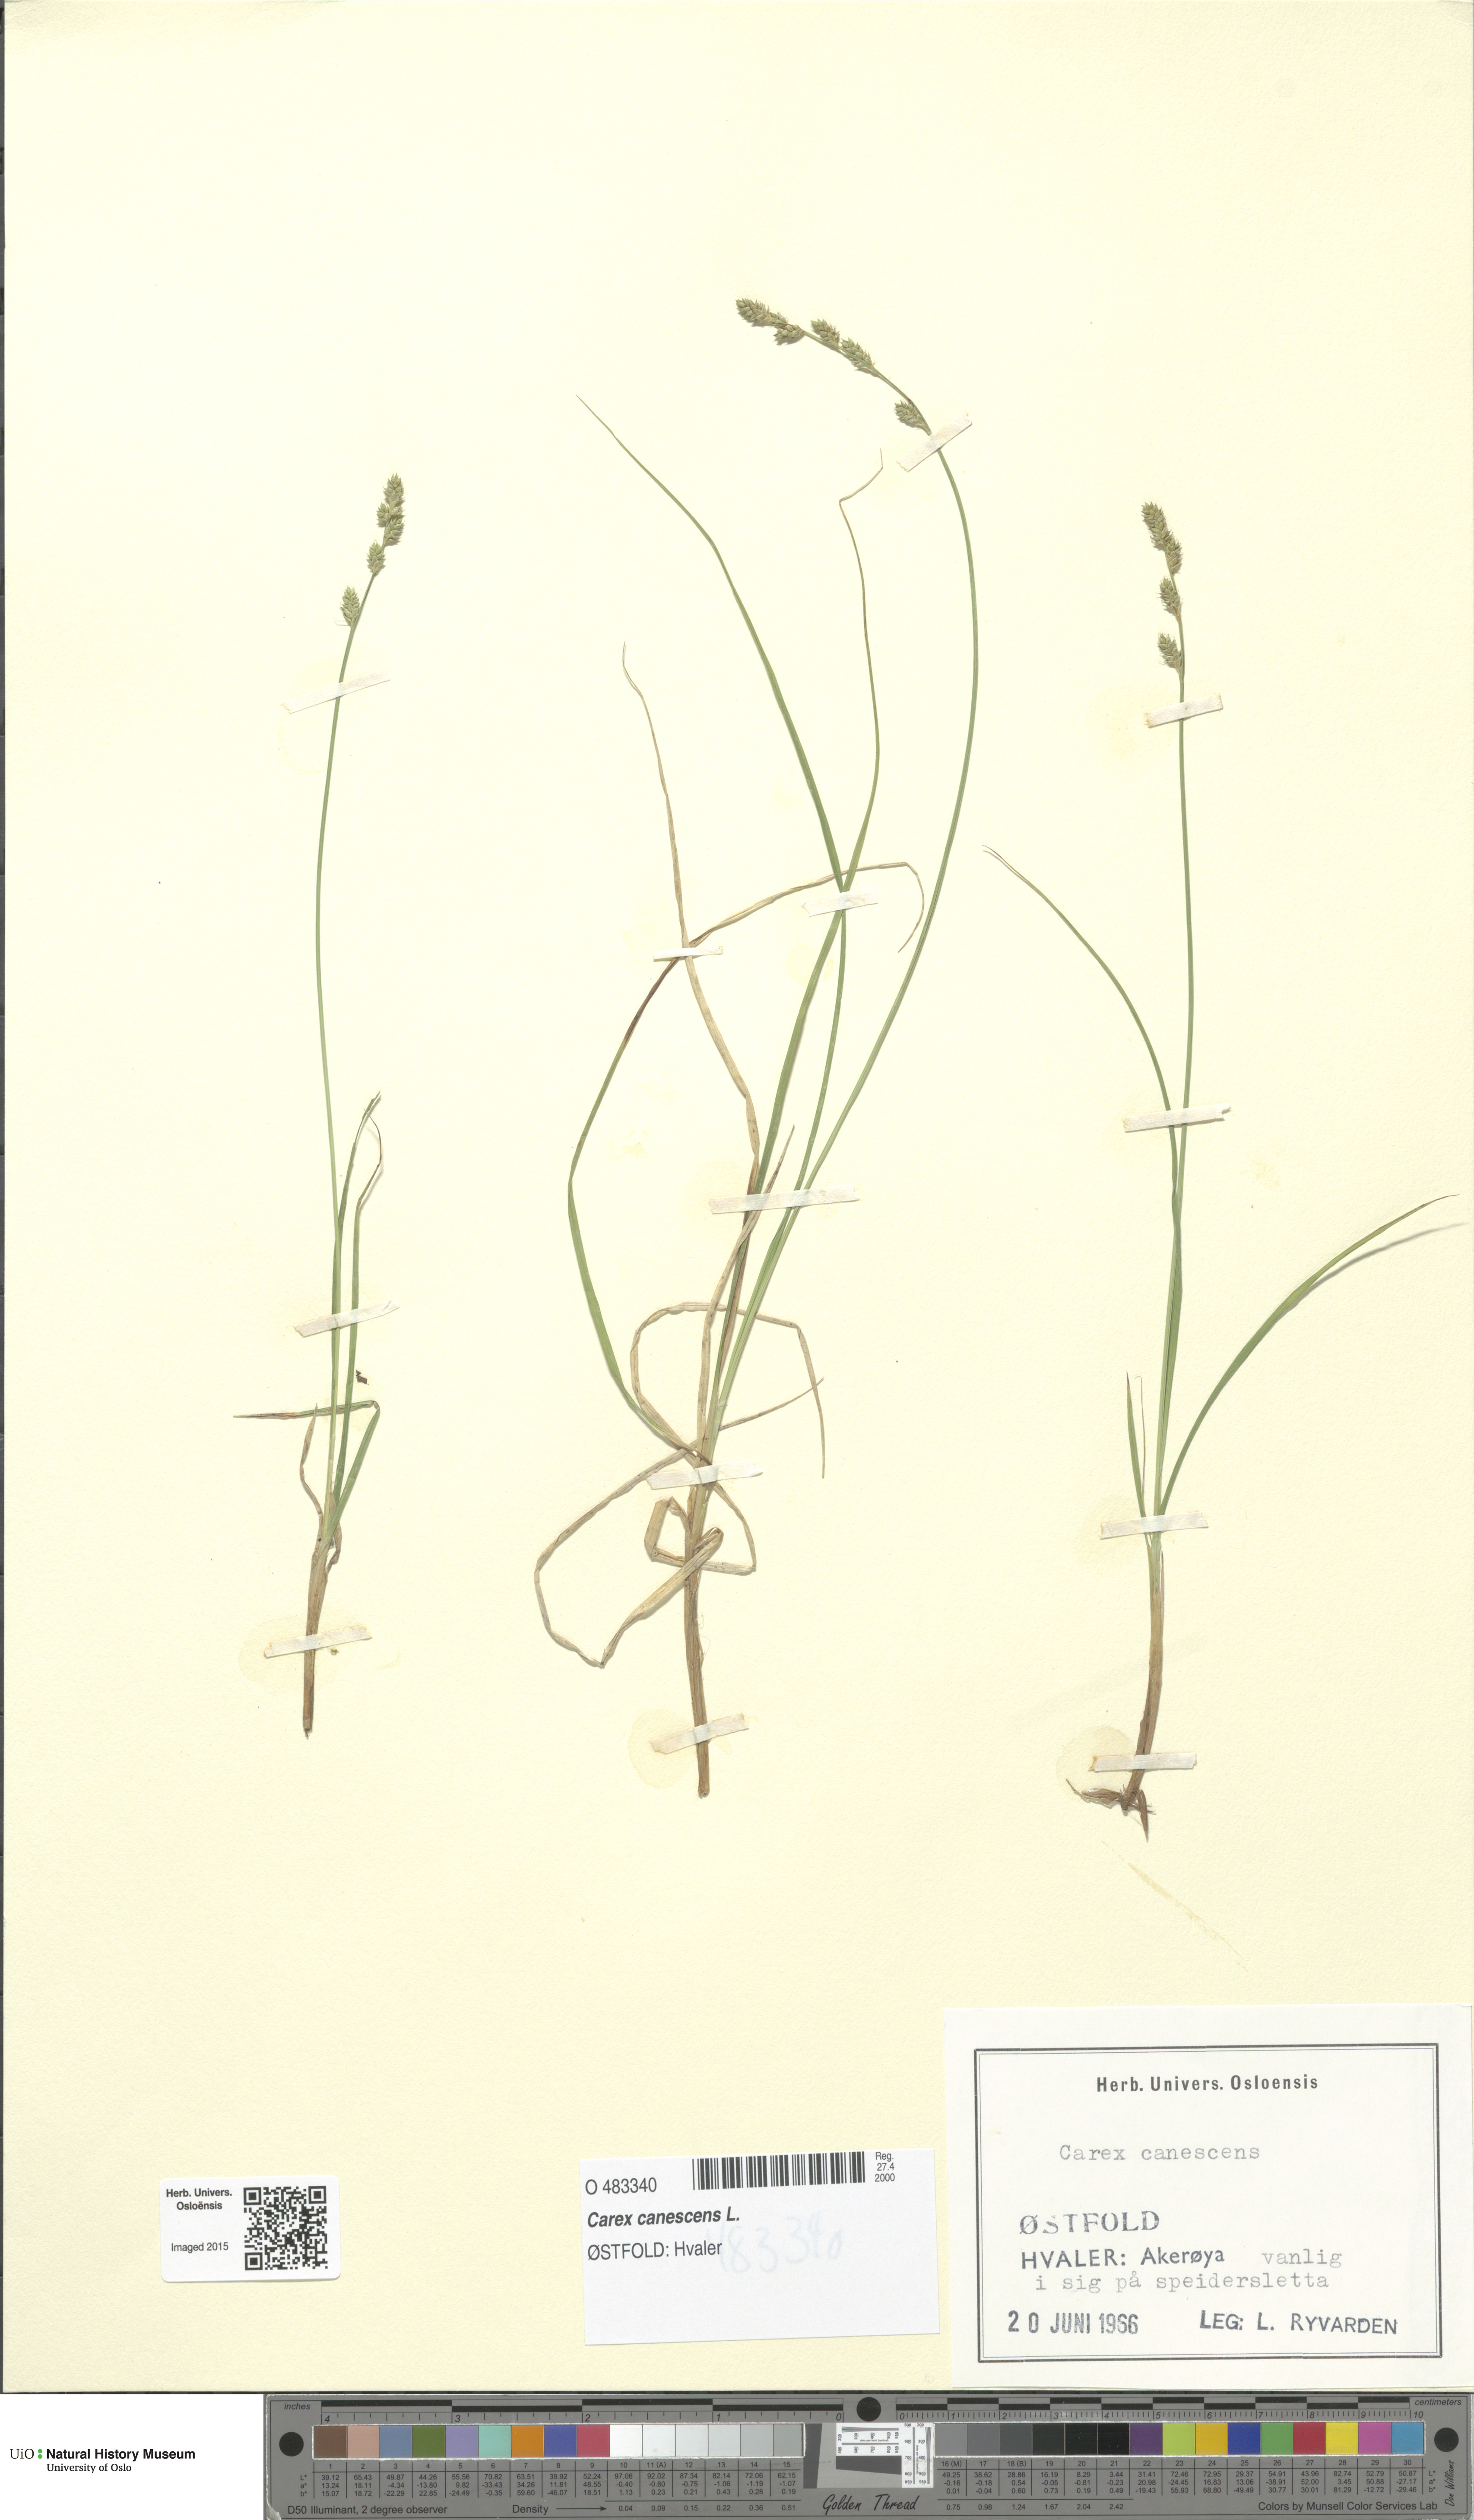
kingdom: Plantae
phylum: Tracheophyta
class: Liliopsida
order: Poales
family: Cyperaceae
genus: Carex
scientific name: Carex canescens
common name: White sedge
